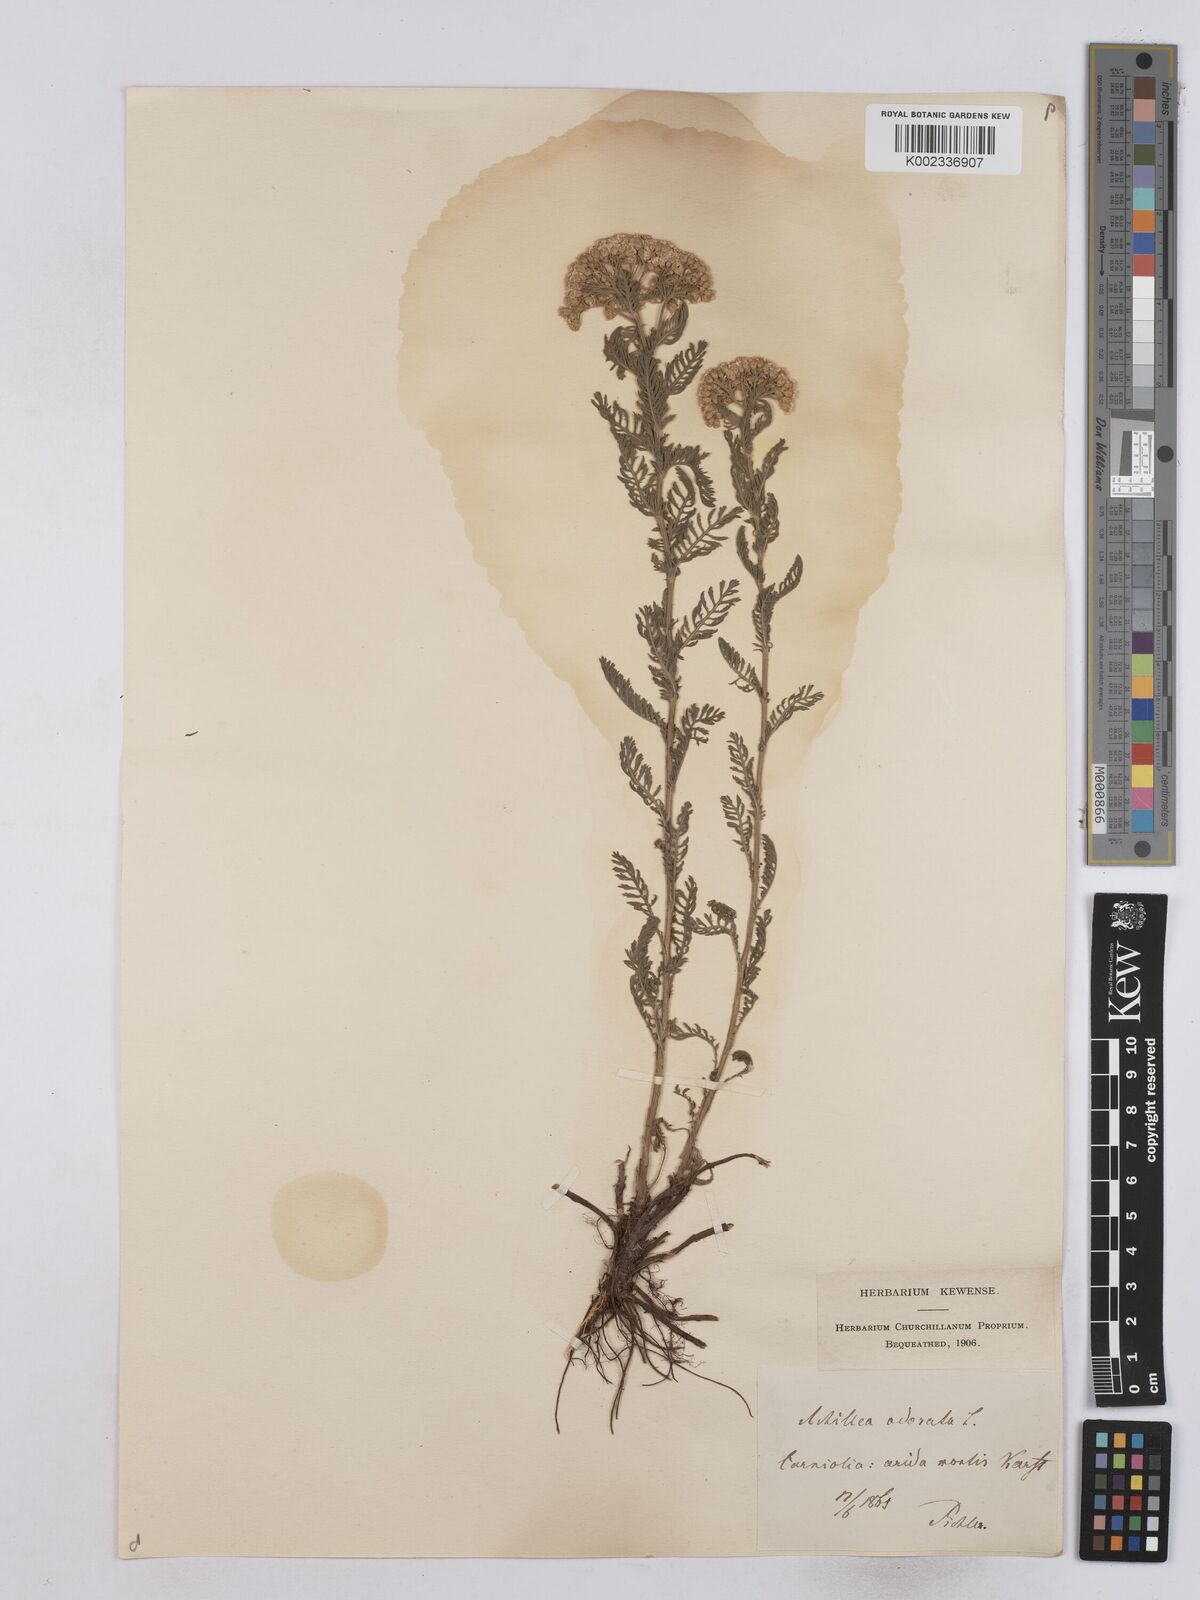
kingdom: Plantae
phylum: Tracheophyta
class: Magnoliopsida
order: Asterales
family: Asteraceae
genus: Achillea
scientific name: Achillea odorata
